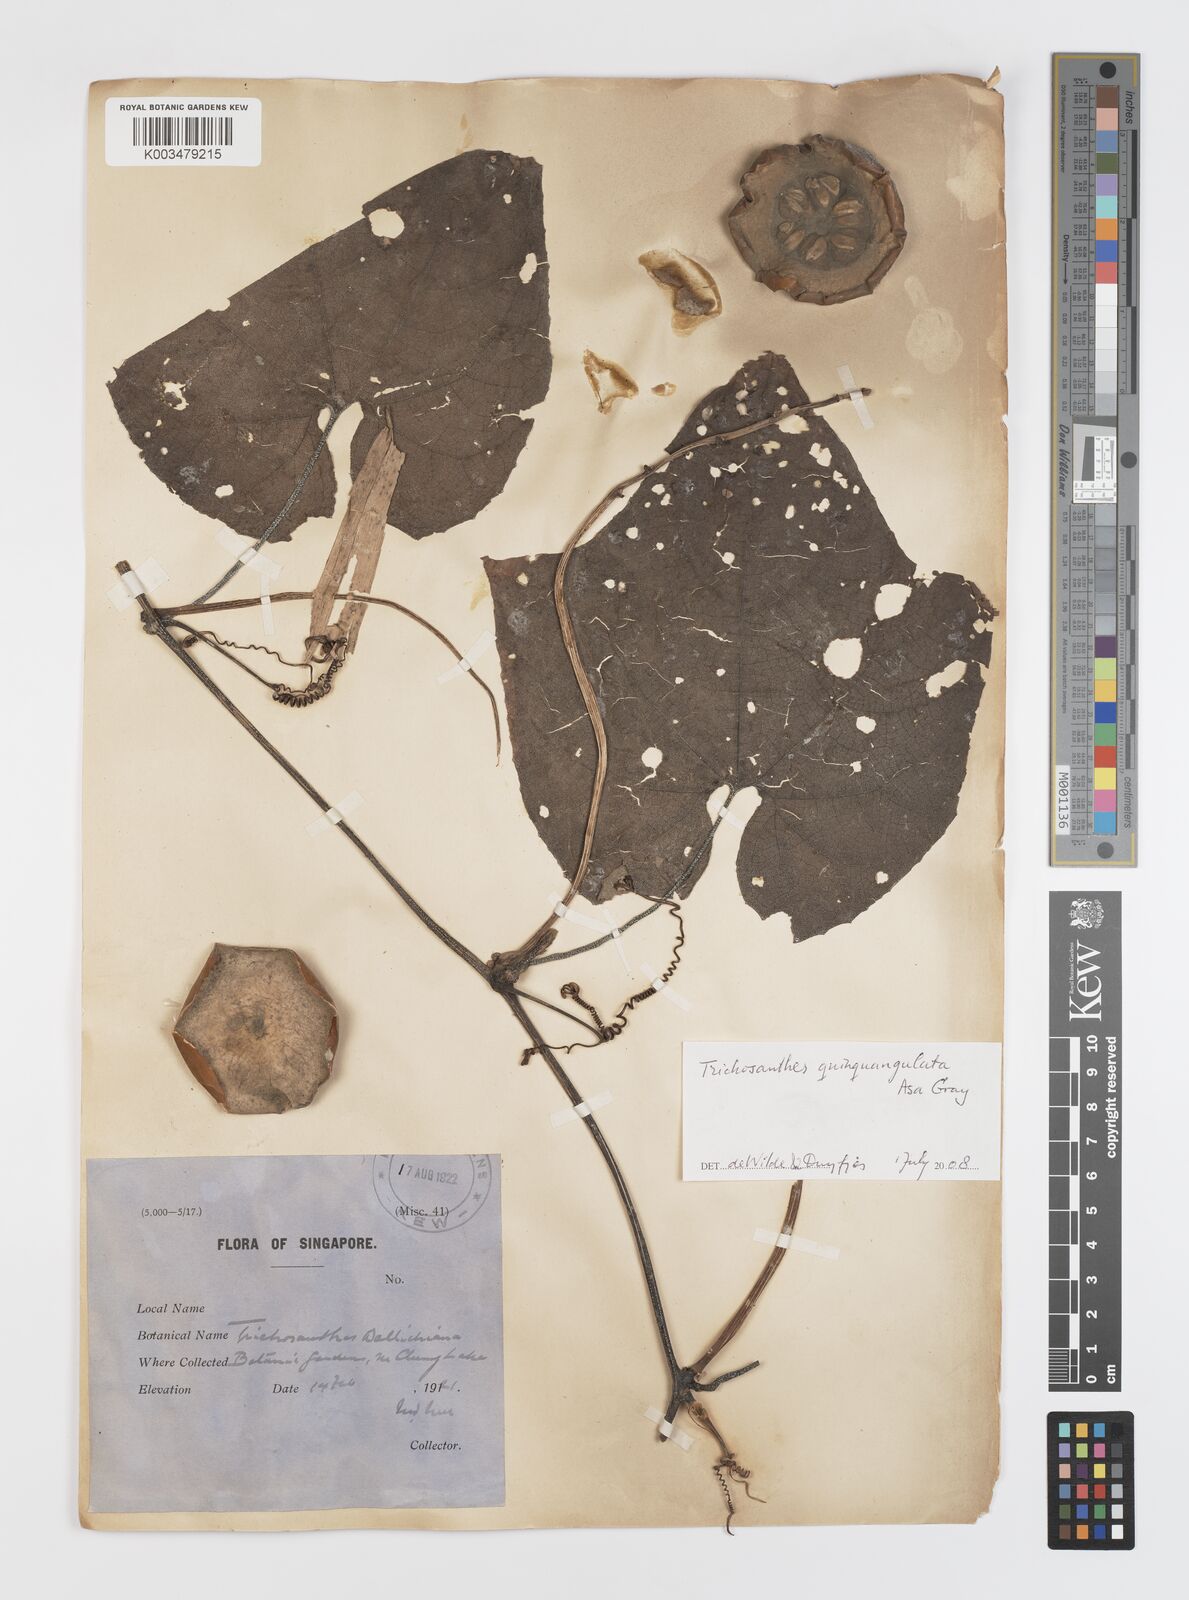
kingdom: Plantae
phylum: Tracheophyta
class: Magnoliopsida
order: Cucurbitales
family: Cucurbitaceae
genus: Trichosanthes
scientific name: Trichosanthes quinquangulata
